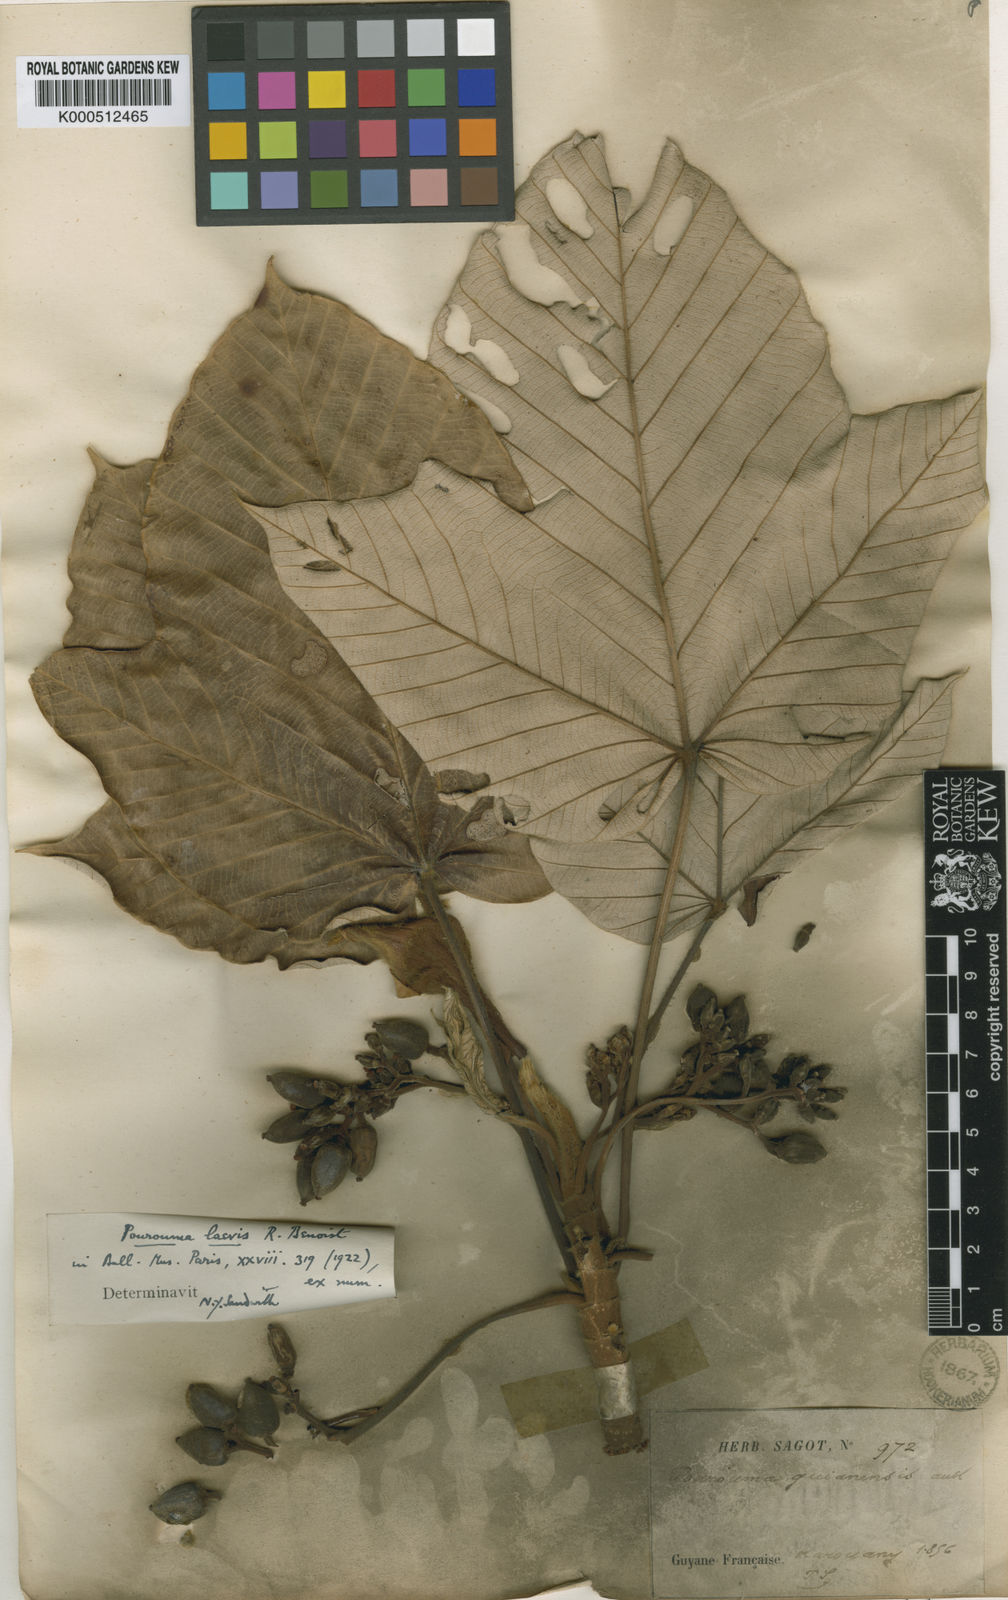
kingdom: Plantae
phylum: Tracheophyta
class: Magnoliopsida
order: Rosales
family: Urticaceae
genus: Pourouma
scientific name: Pourouma villosa
